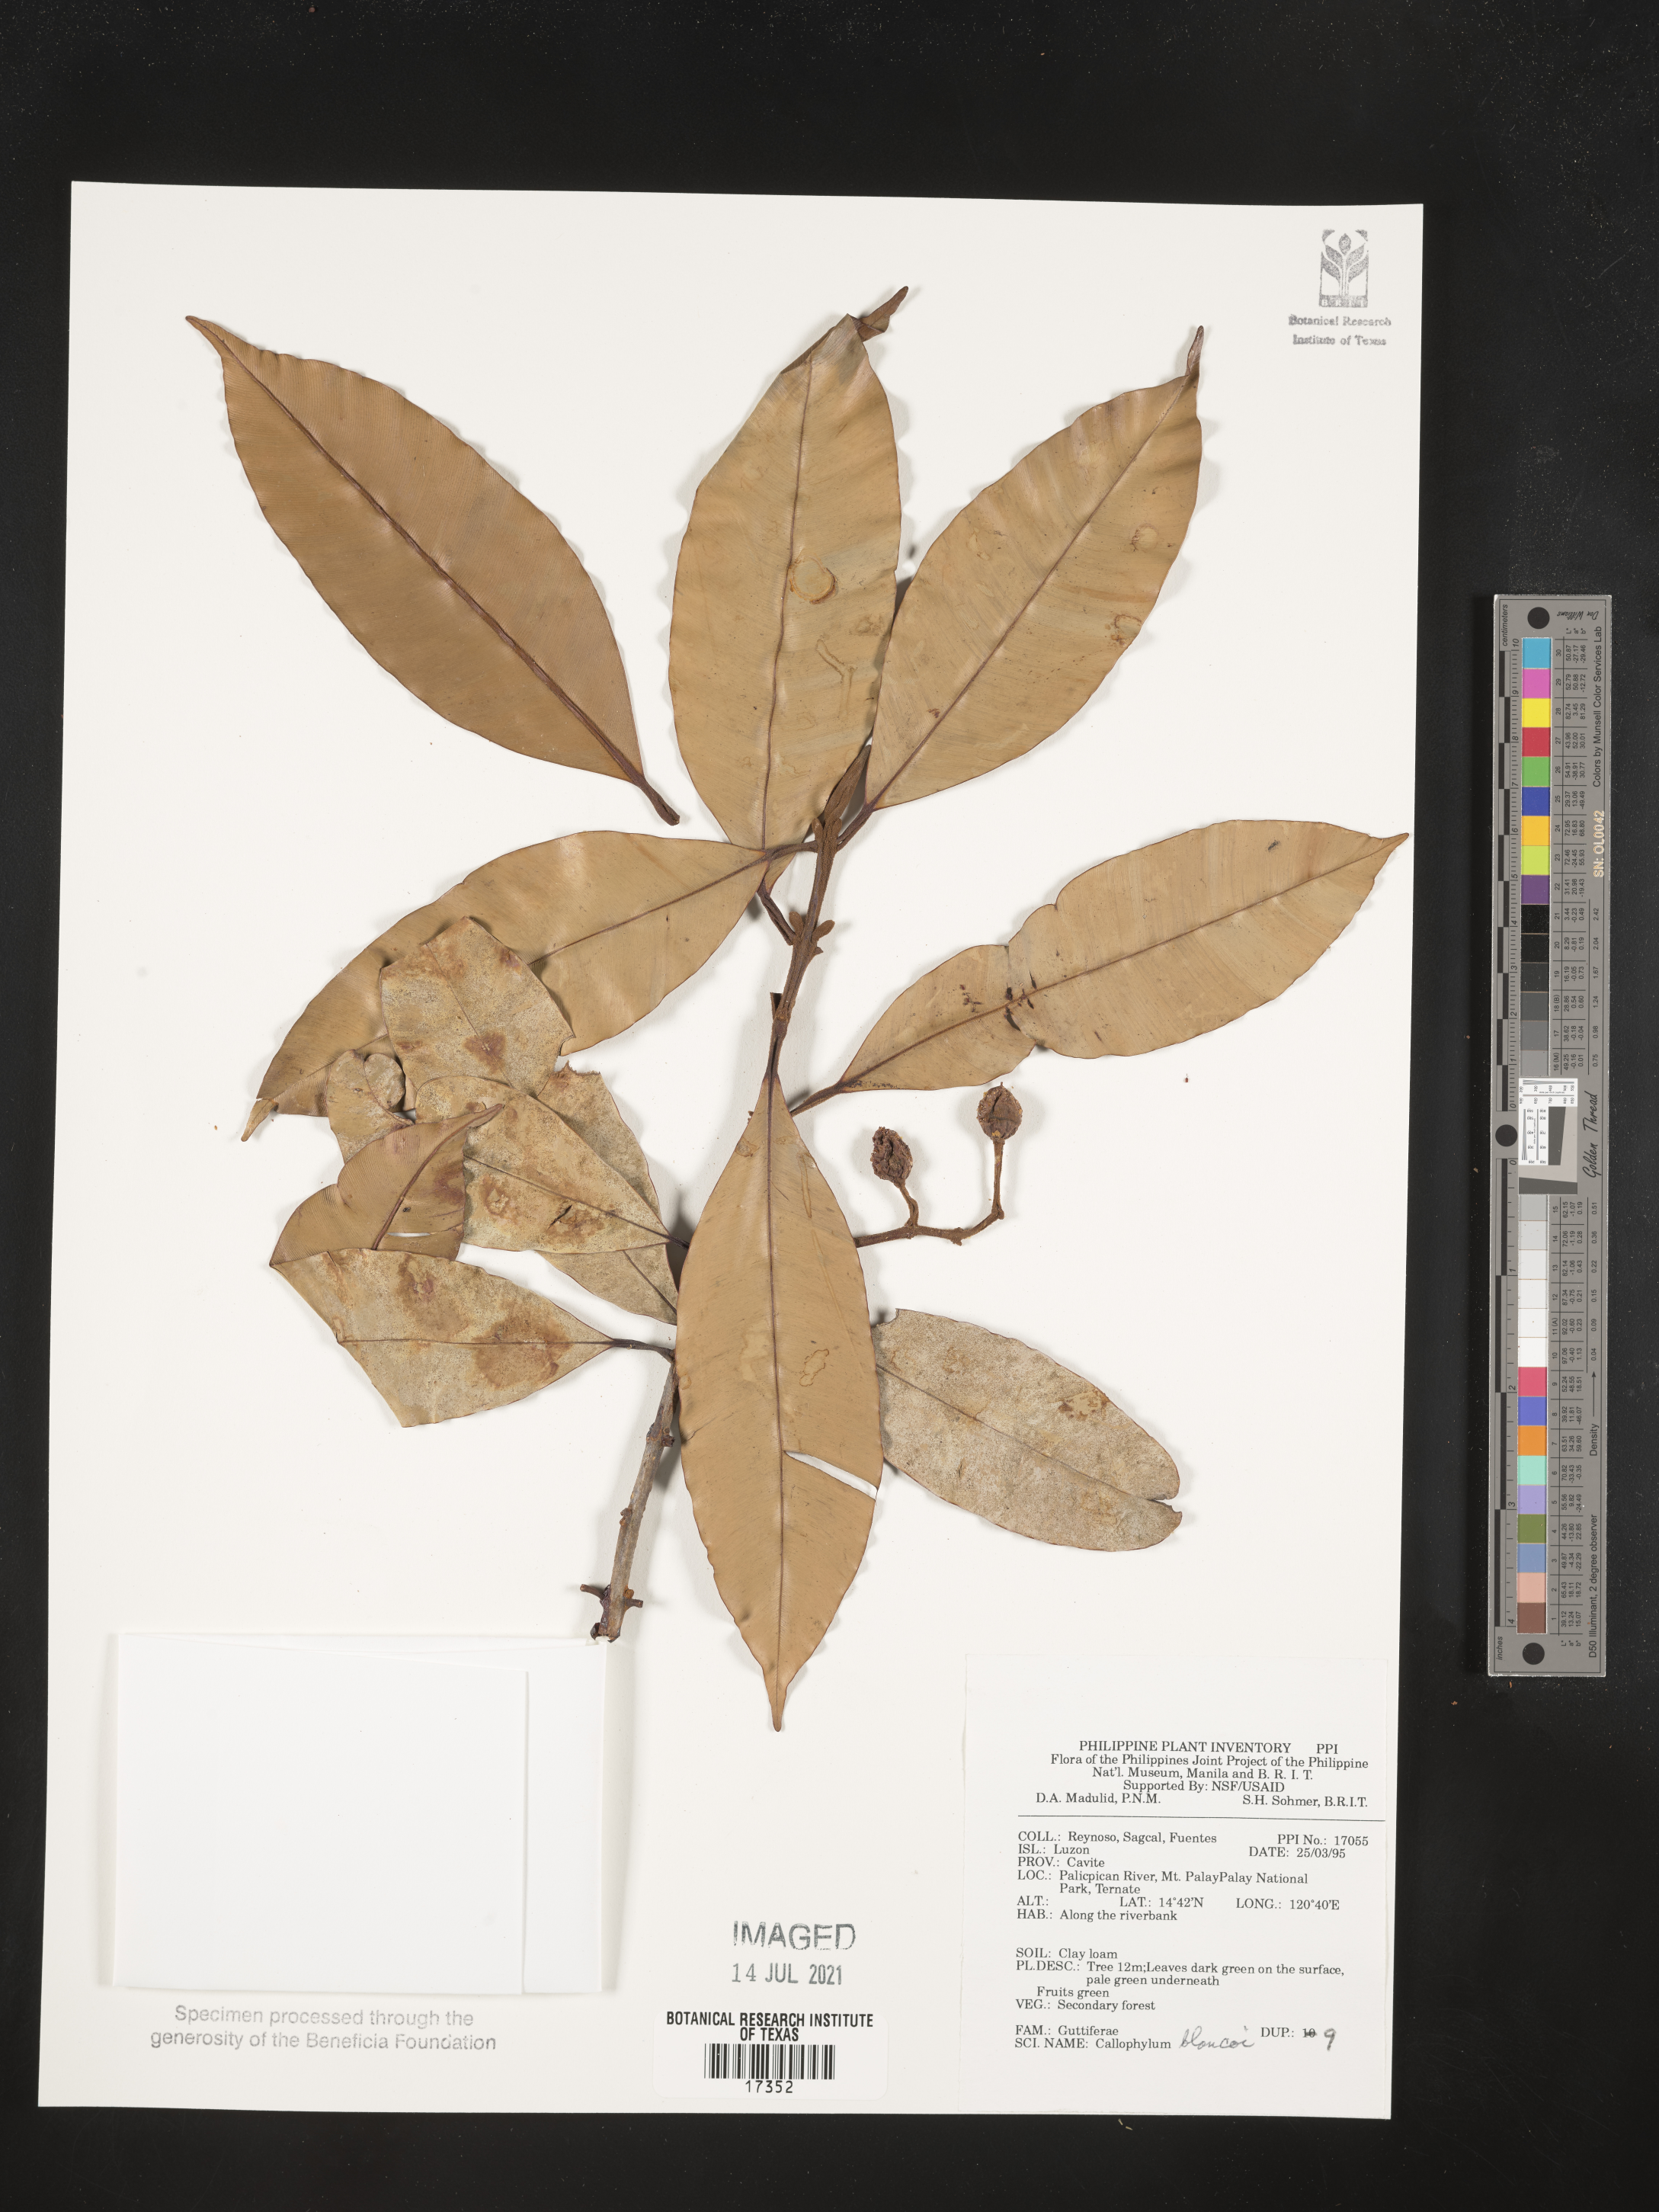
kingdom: Plantae
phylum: Tracheophyta
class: Magnoliopsida
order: Malpighiales
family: Calophyllaceae
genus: Calophyllum
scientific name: Calophyllum blancoi
